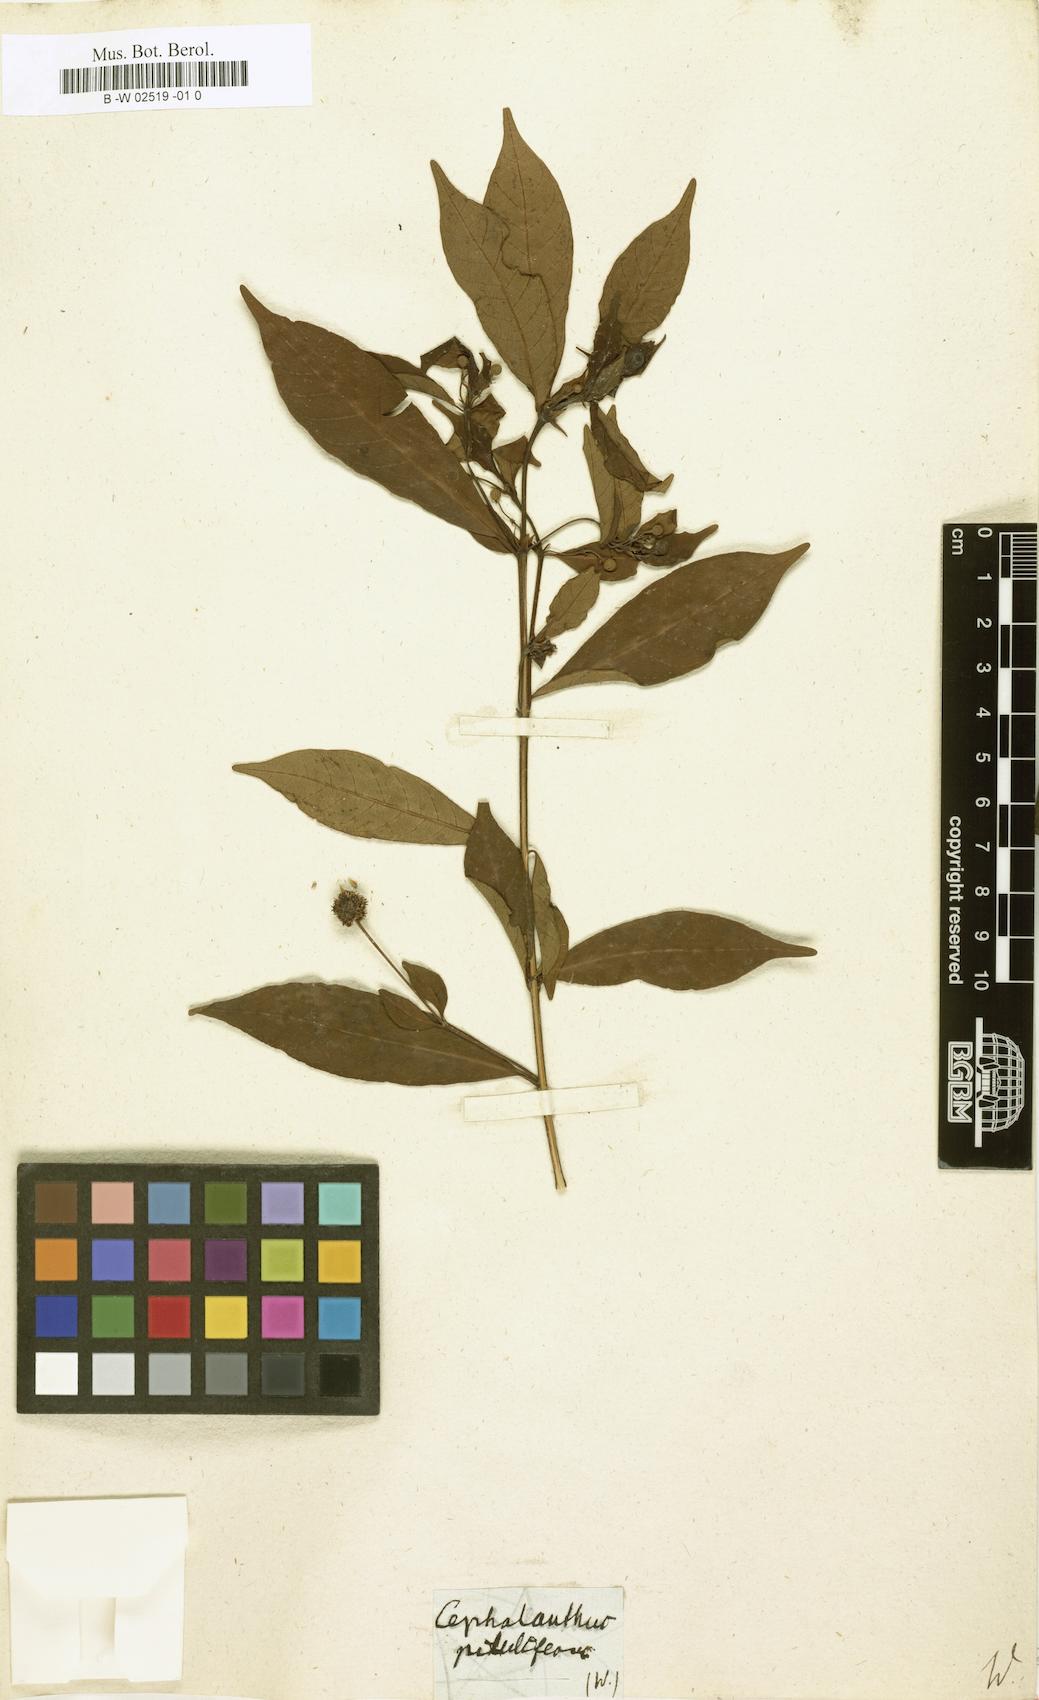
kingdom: Plantae
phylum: Tracheophyta
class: Magnoliopsida
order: Gentianales
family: Rubiaceae
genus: Adina
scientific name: Adina pilulifera
